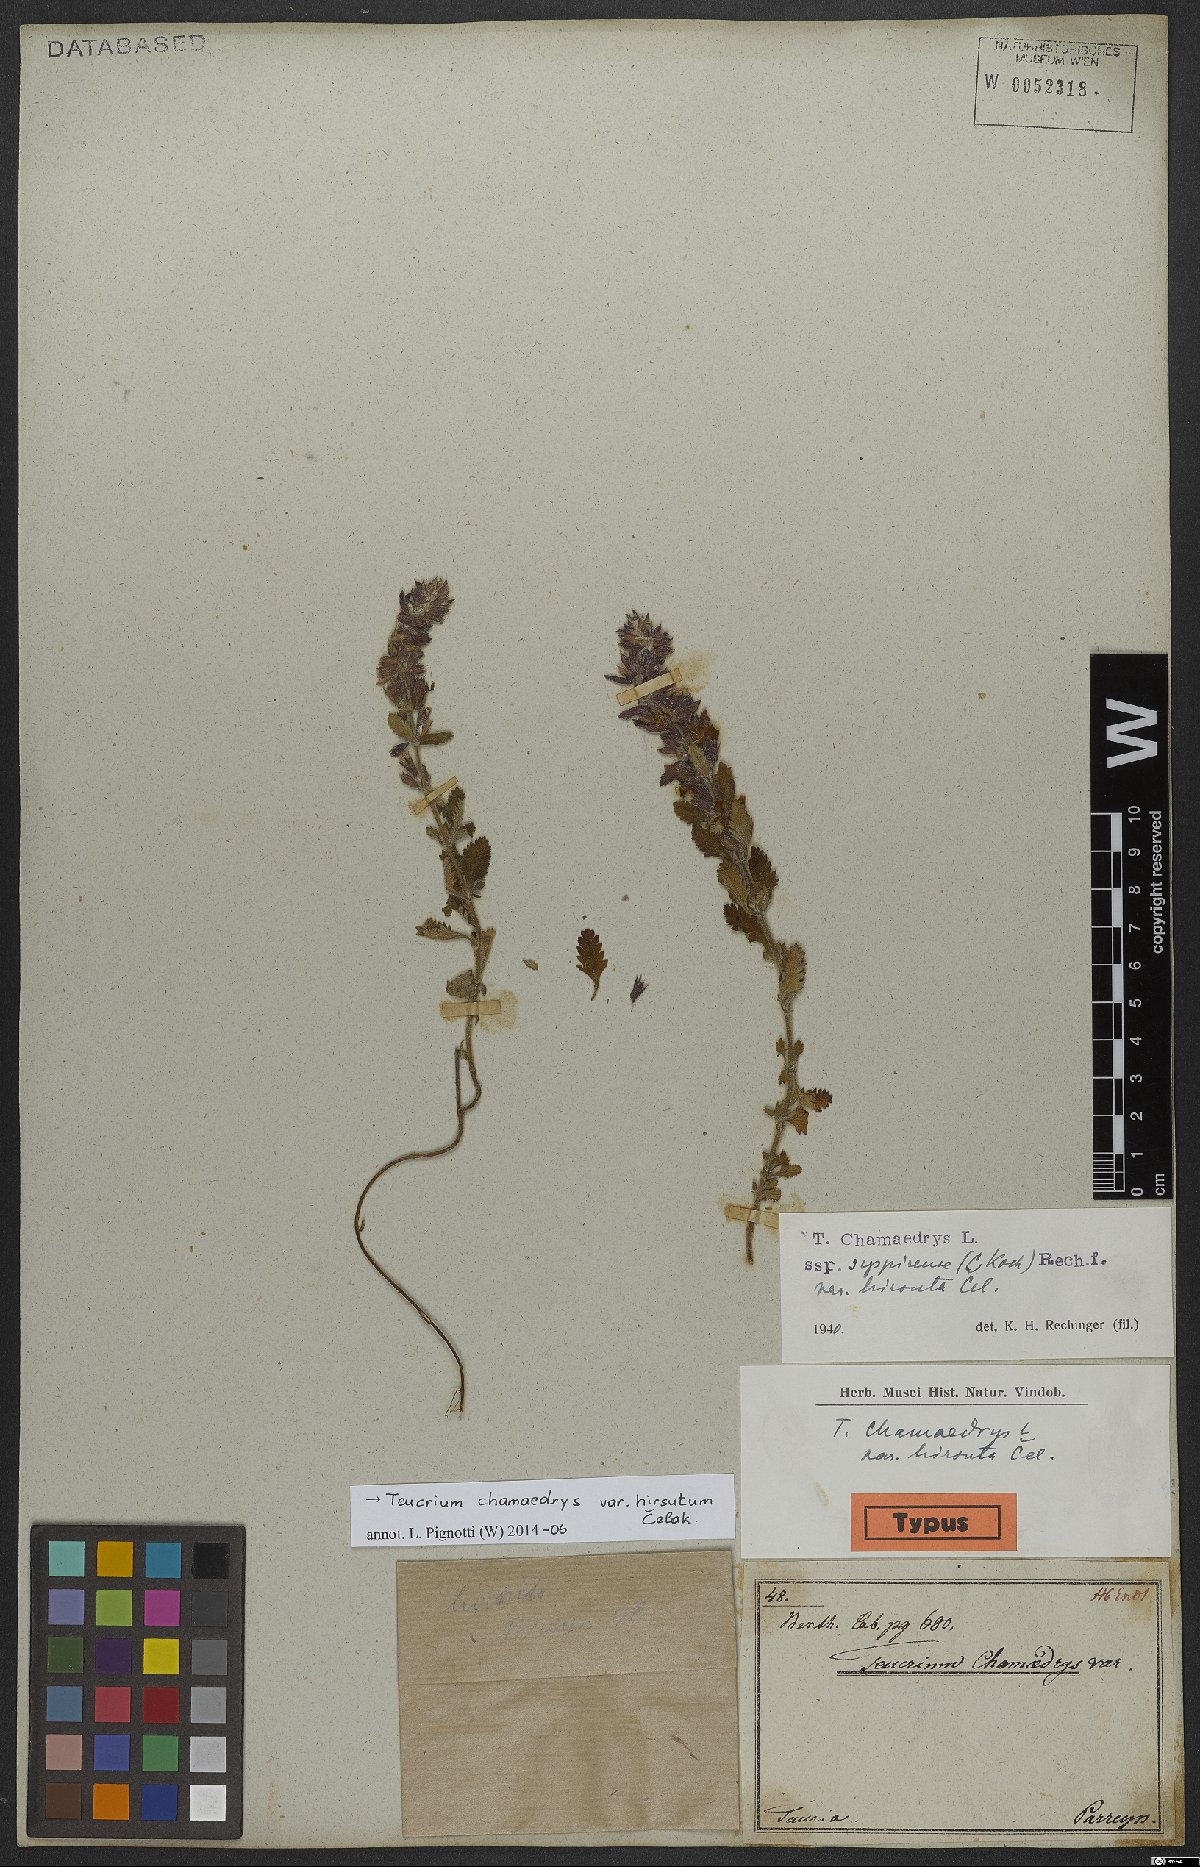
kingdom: Plantae
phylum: Tracheophyta
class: Magnoliopsida
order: Lamiales
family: Lamiaceae
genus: Teucrium
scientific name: Teucrium chamaedrys
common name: Wall germander
